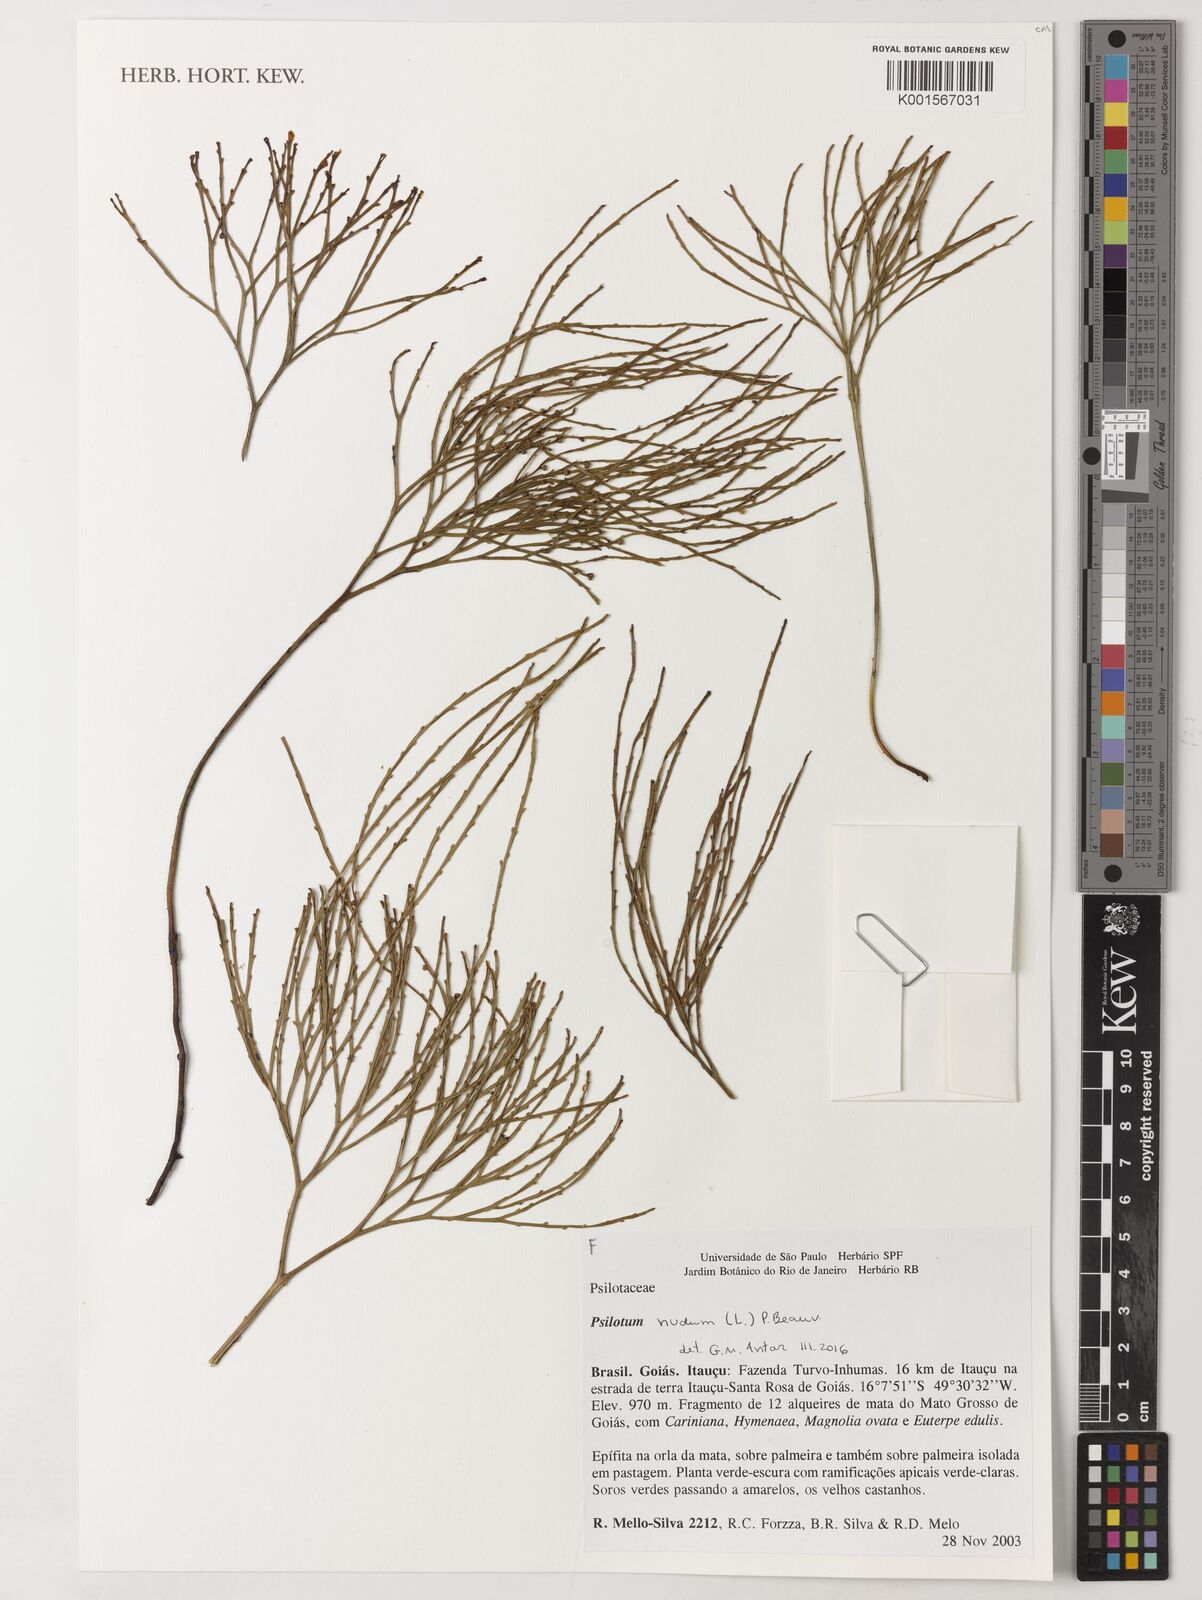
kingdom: Plantae
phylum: Tracheophyta
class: Polypodiopsida
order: Psilotales
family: Psilotaceae
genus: Psilotum
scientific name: Psilotum nudum
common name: Skeleton fork fern
